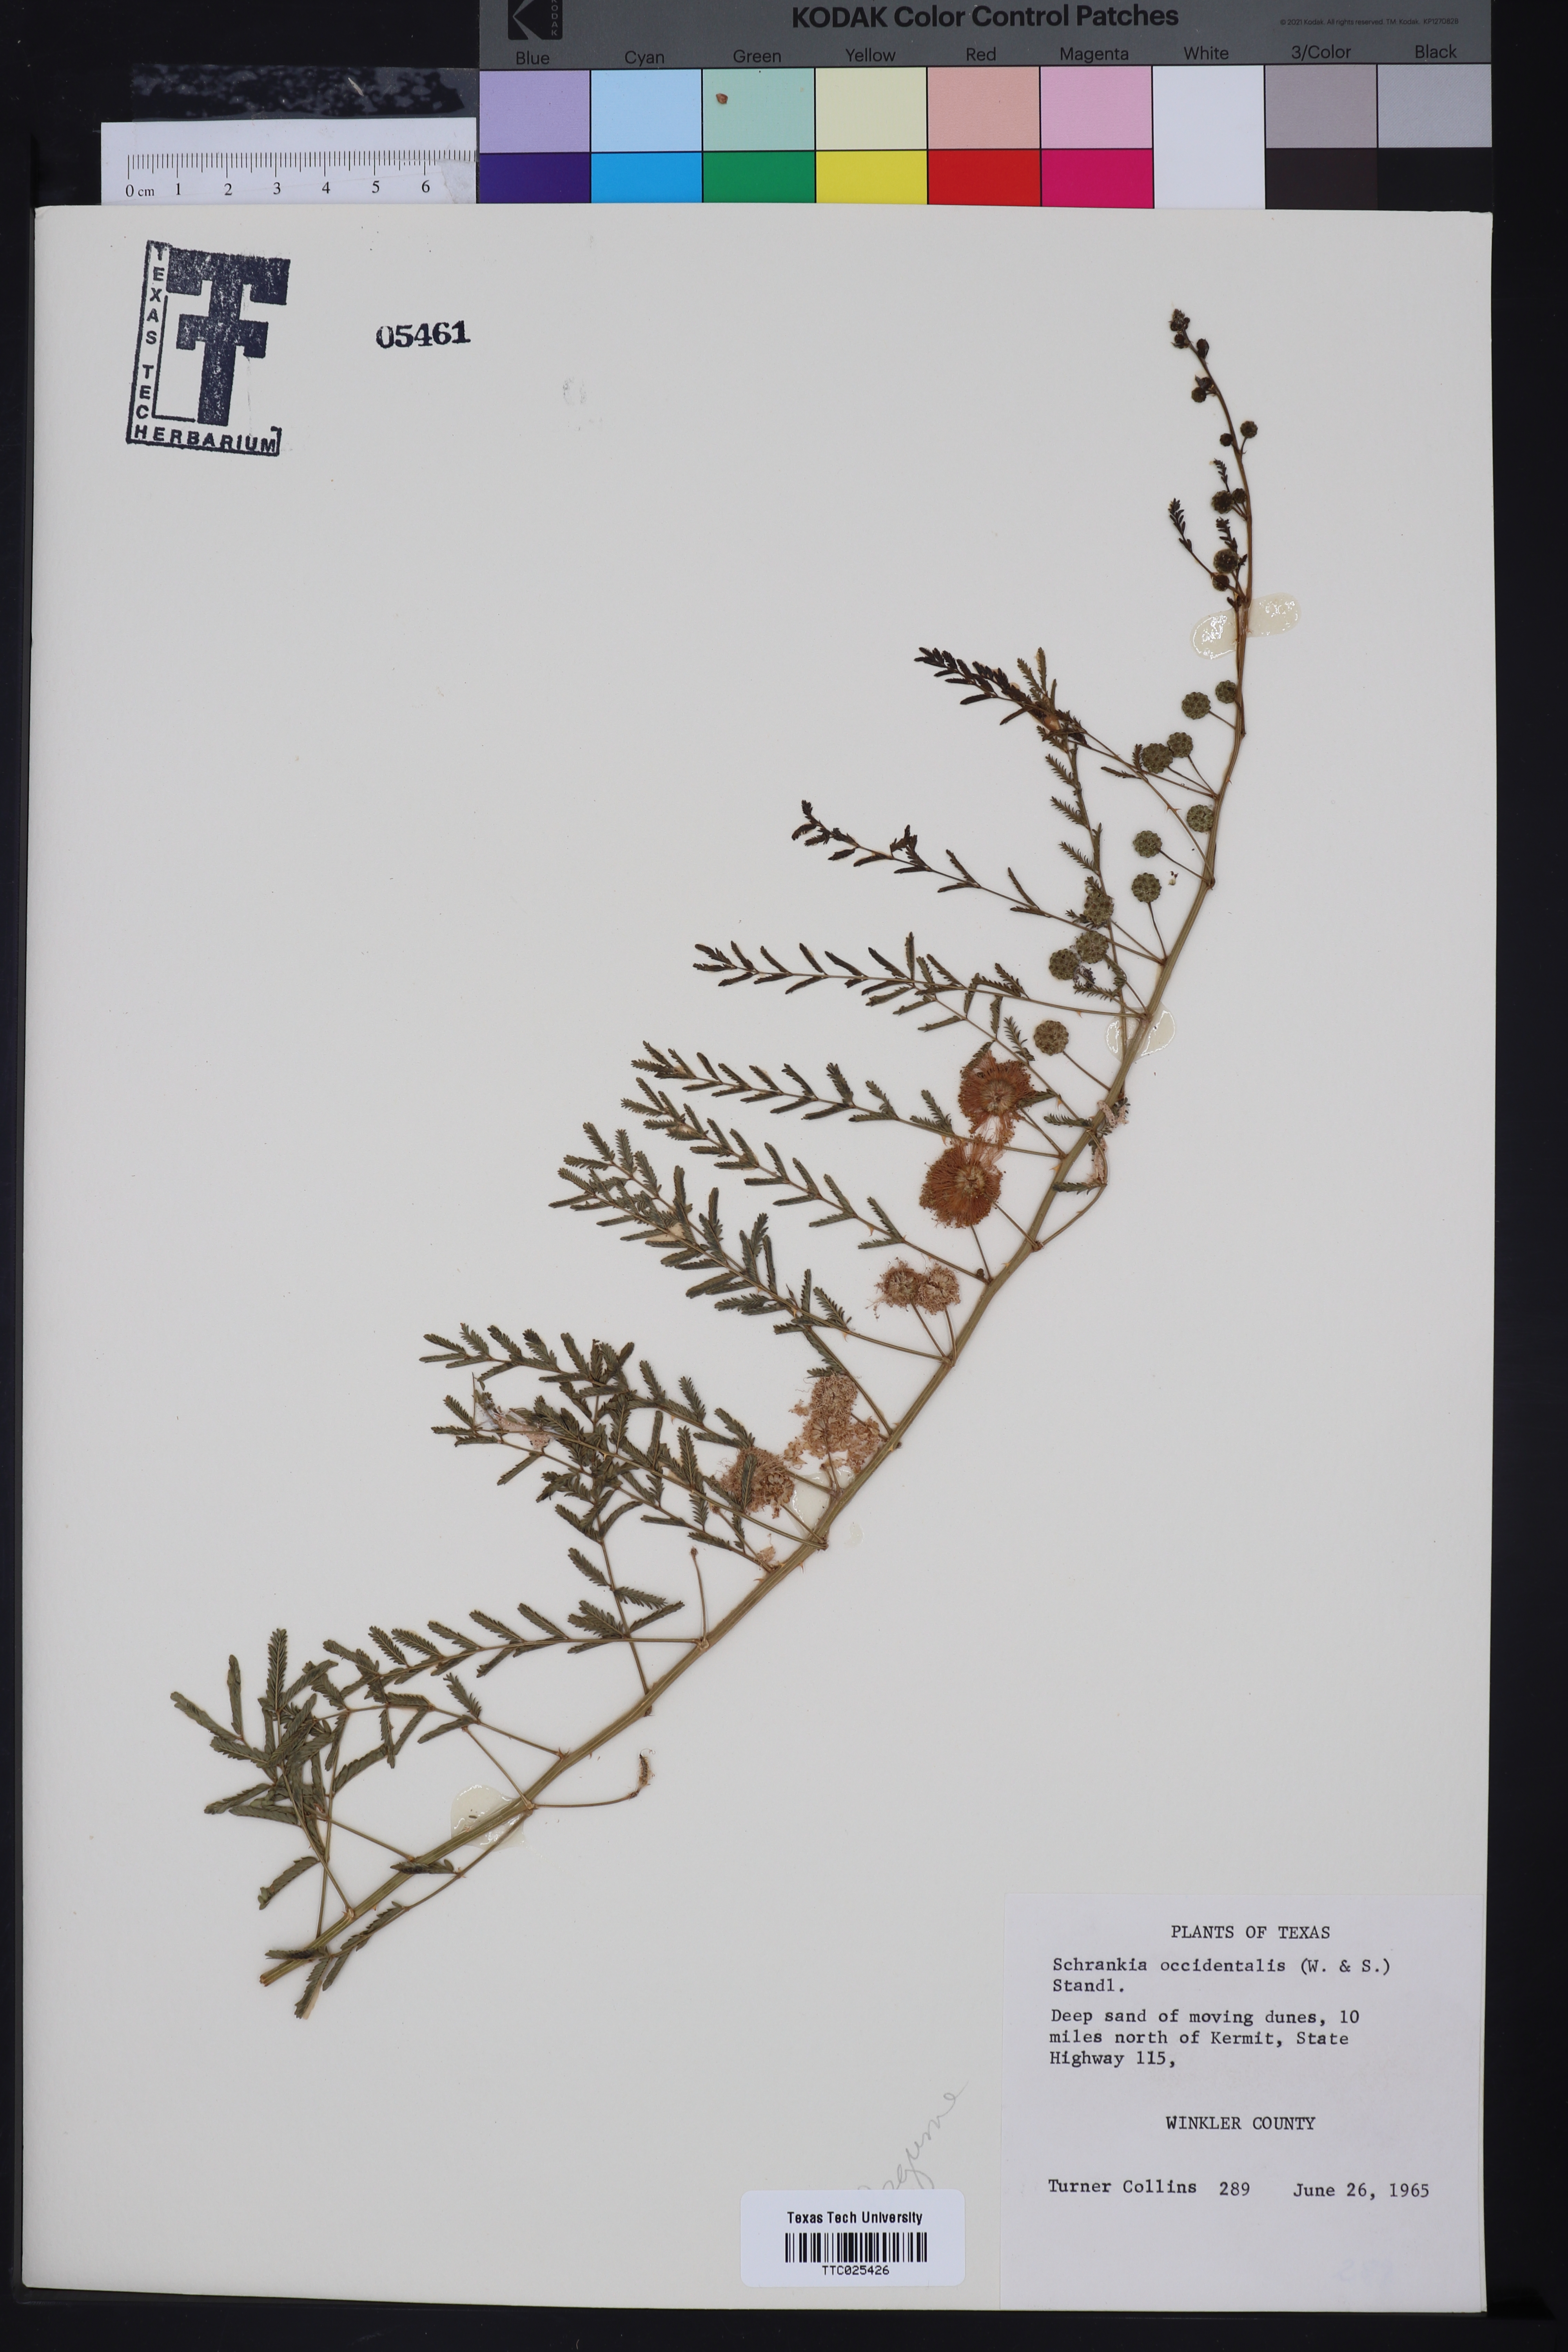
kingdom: Plantae
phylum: Tracheophyta
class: Magnoliopsida
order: Fabales
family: Fabaceae
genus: Mimosa
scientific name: Mimosa quadrivalvis
